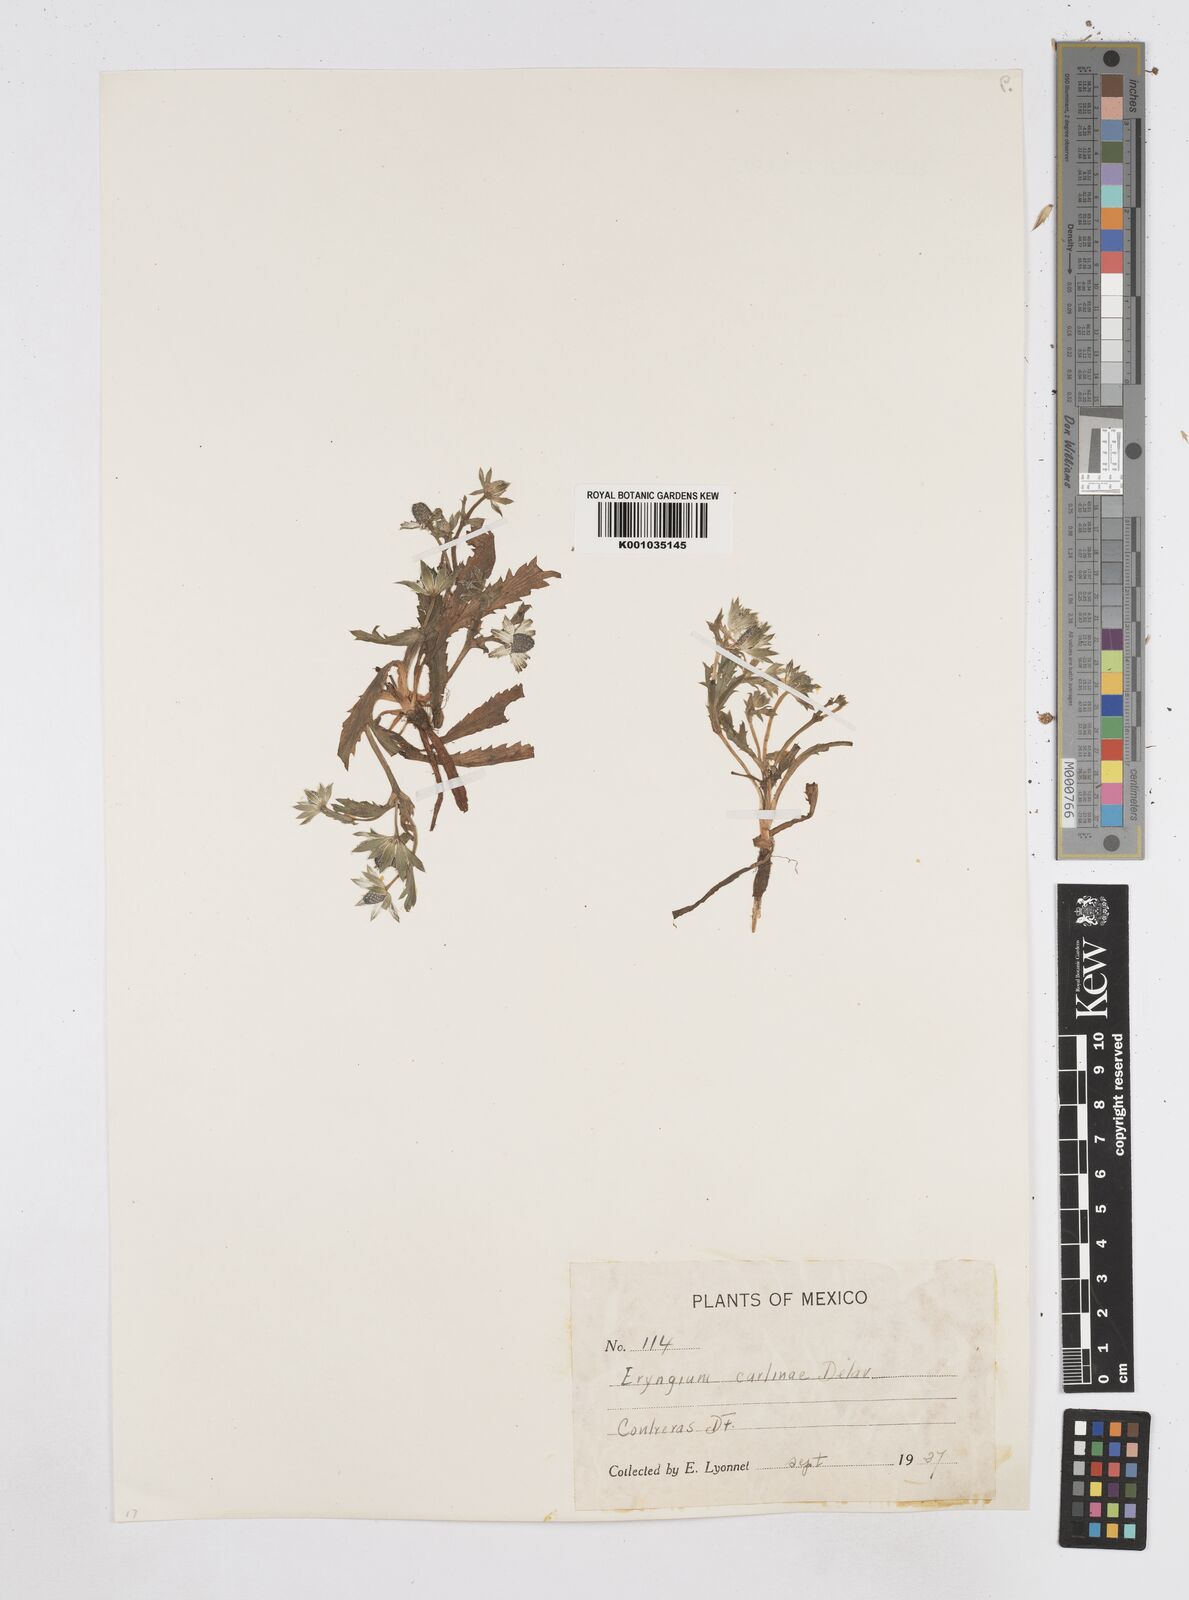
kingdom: Plantae
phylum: Tracheophyta
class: Magnoliopsida
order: Apiales
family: Apiaceae
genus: Eryngium
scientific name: Eryngium carlinae
